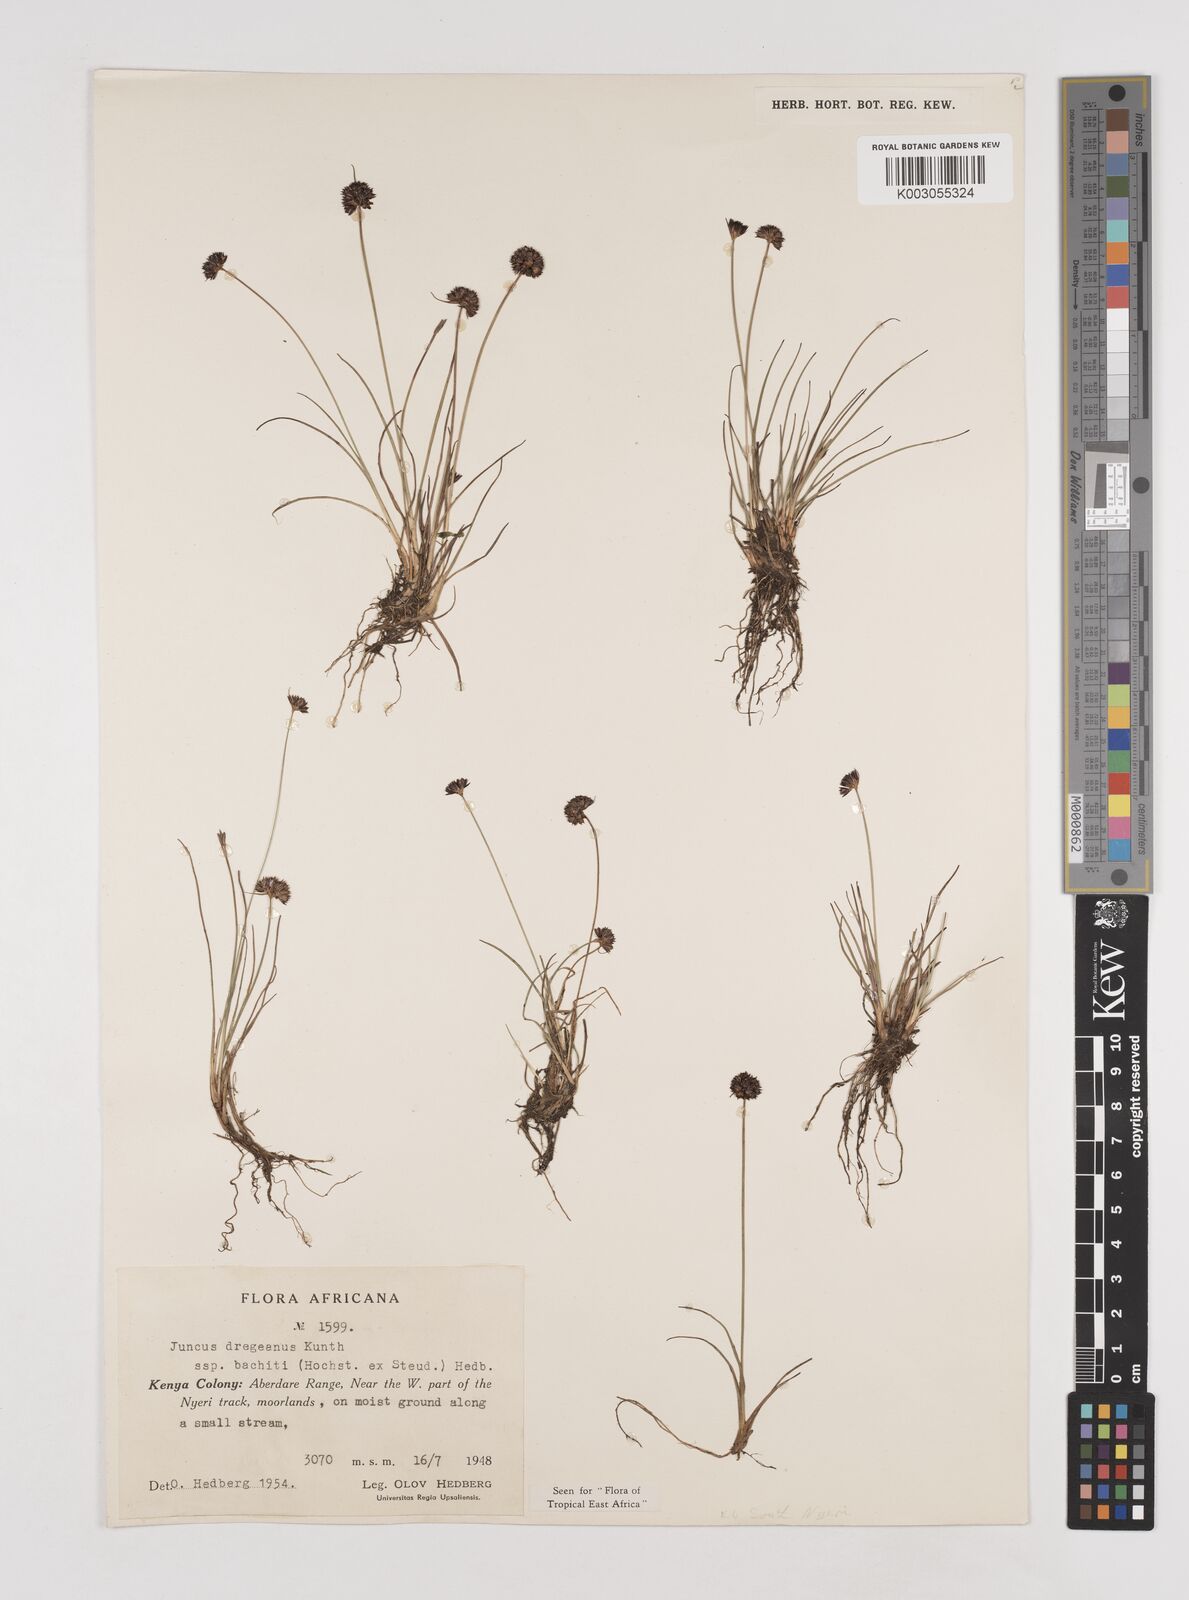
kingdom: Plantae
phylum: Tracheophyta
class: Liliopsida
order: Poales
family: Juncaceae
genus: Juncus
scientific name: Juncus dregeanus
